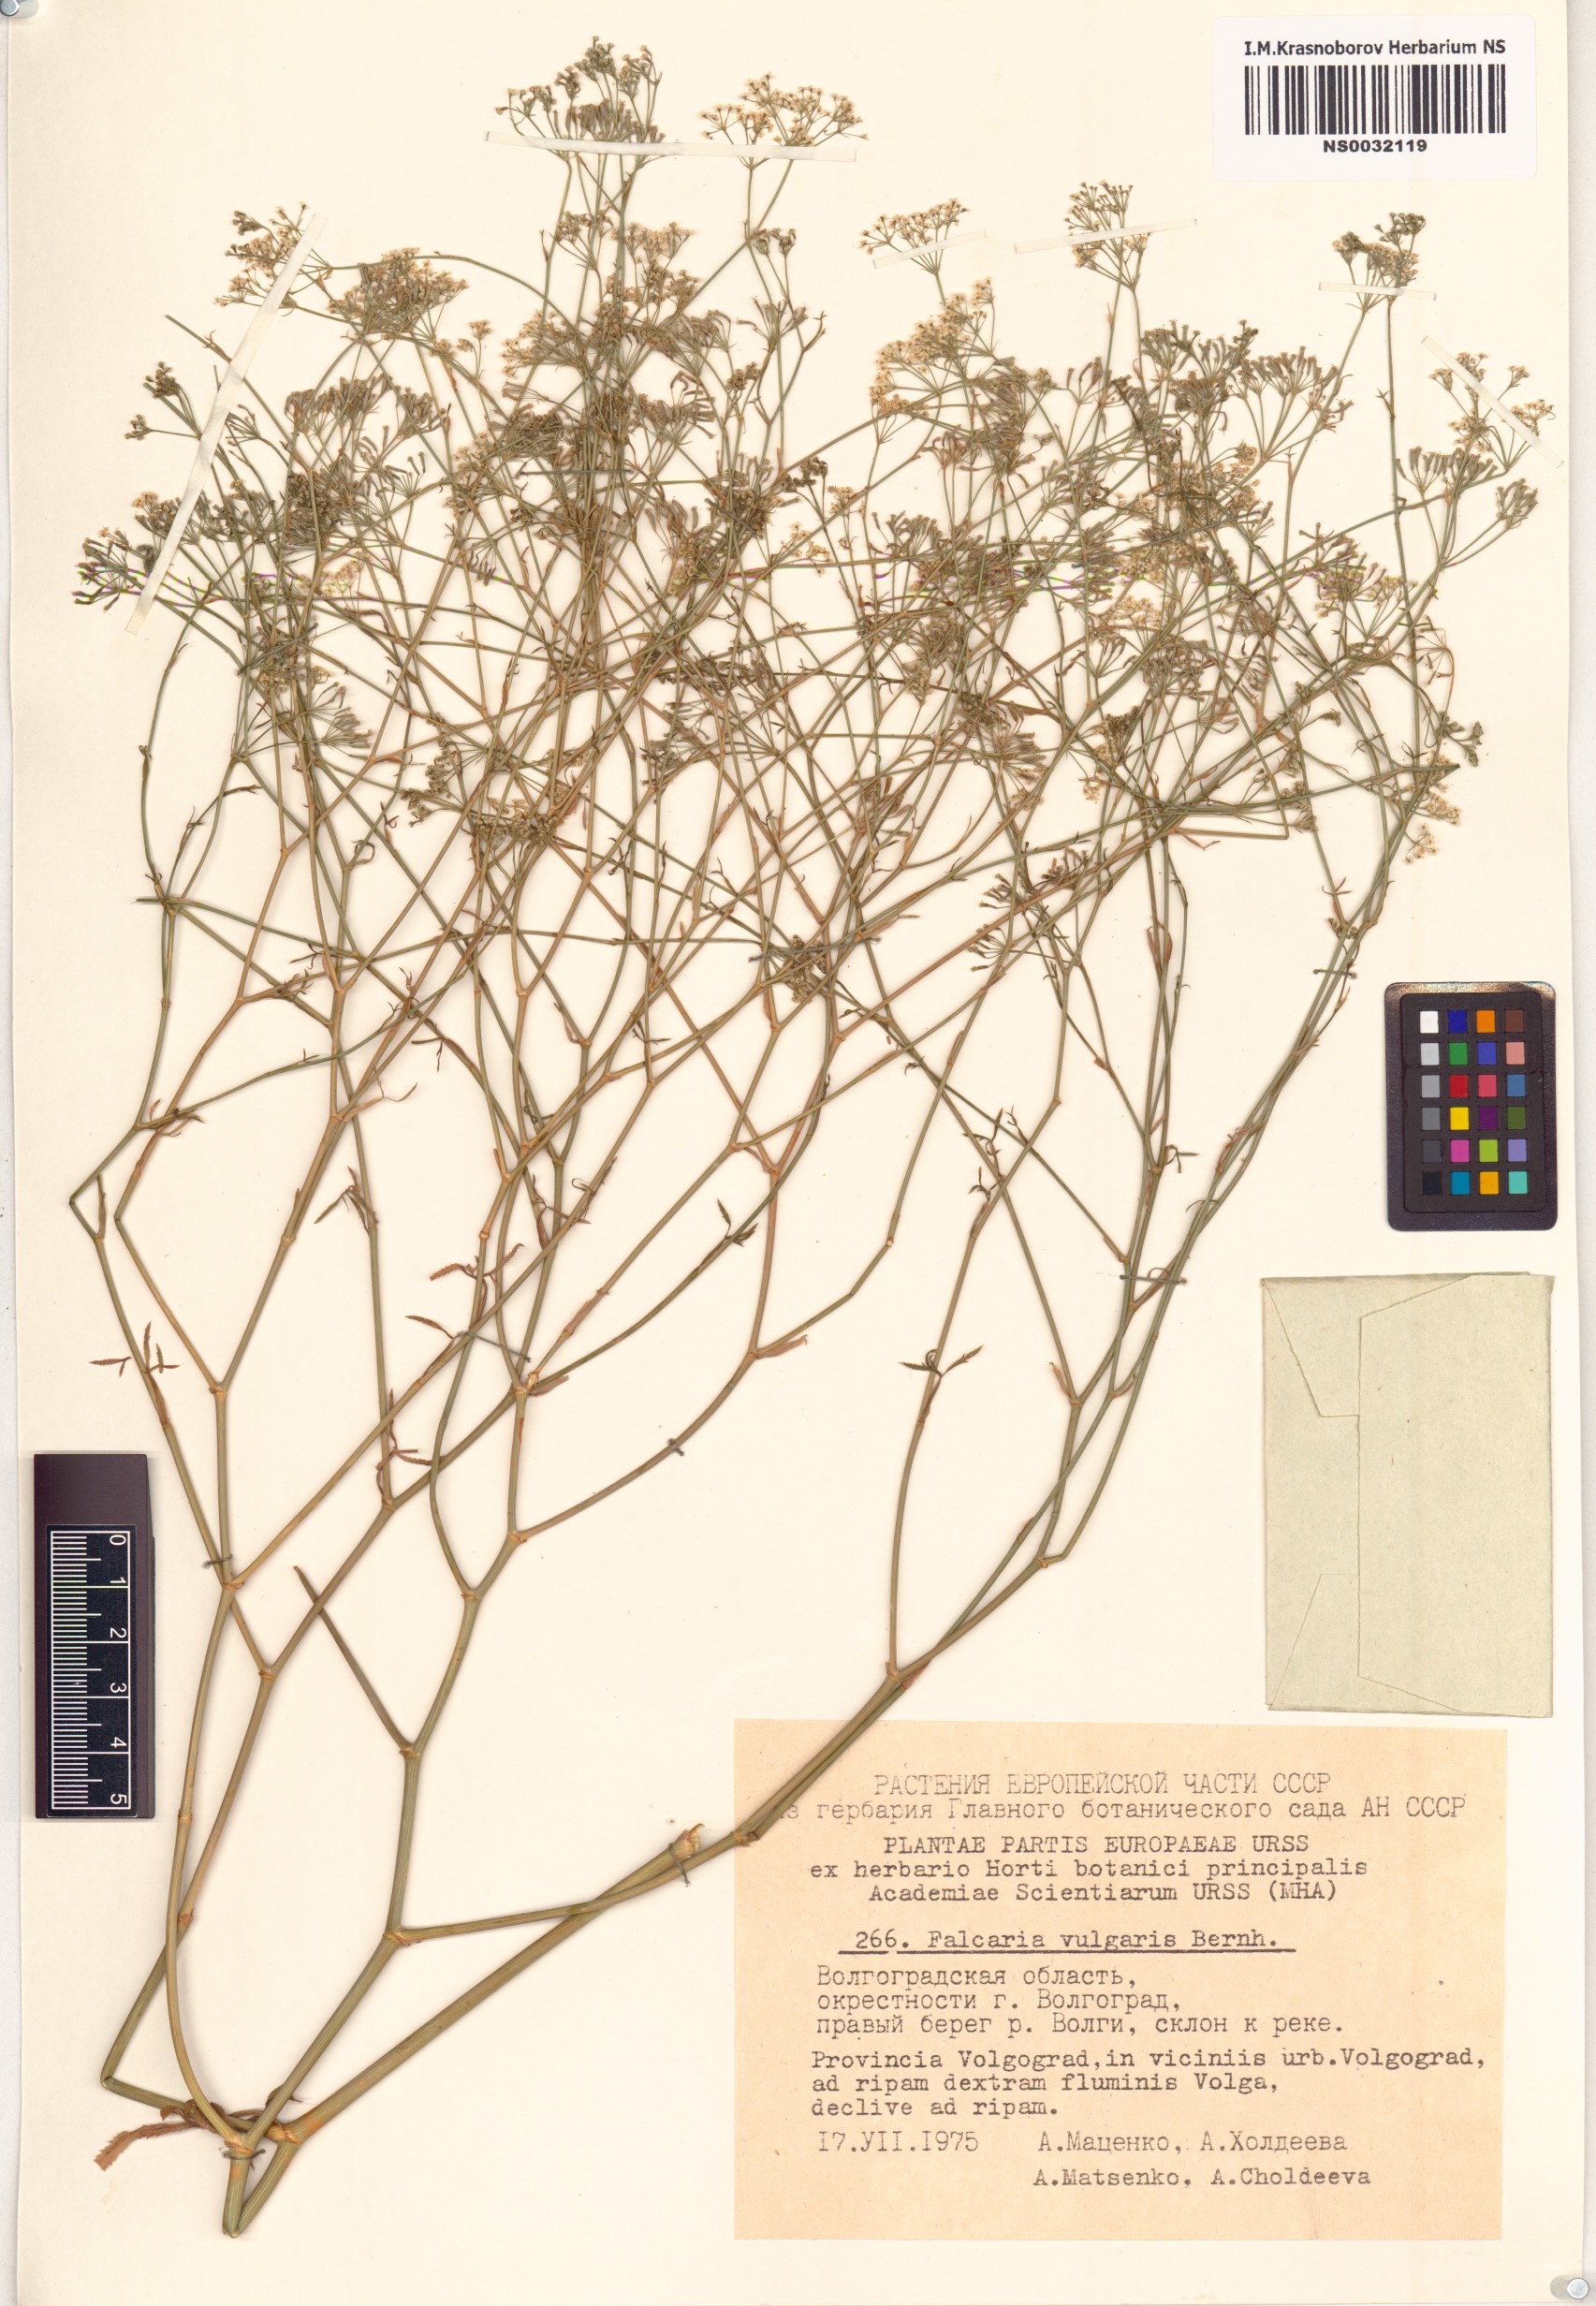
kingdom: Plantae
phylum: Tracheophyta
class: Magnoliopsida
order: Apiales
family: Apiaceae
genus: Falcaria
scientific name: Falcaria vulgaris
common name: Longleaf
